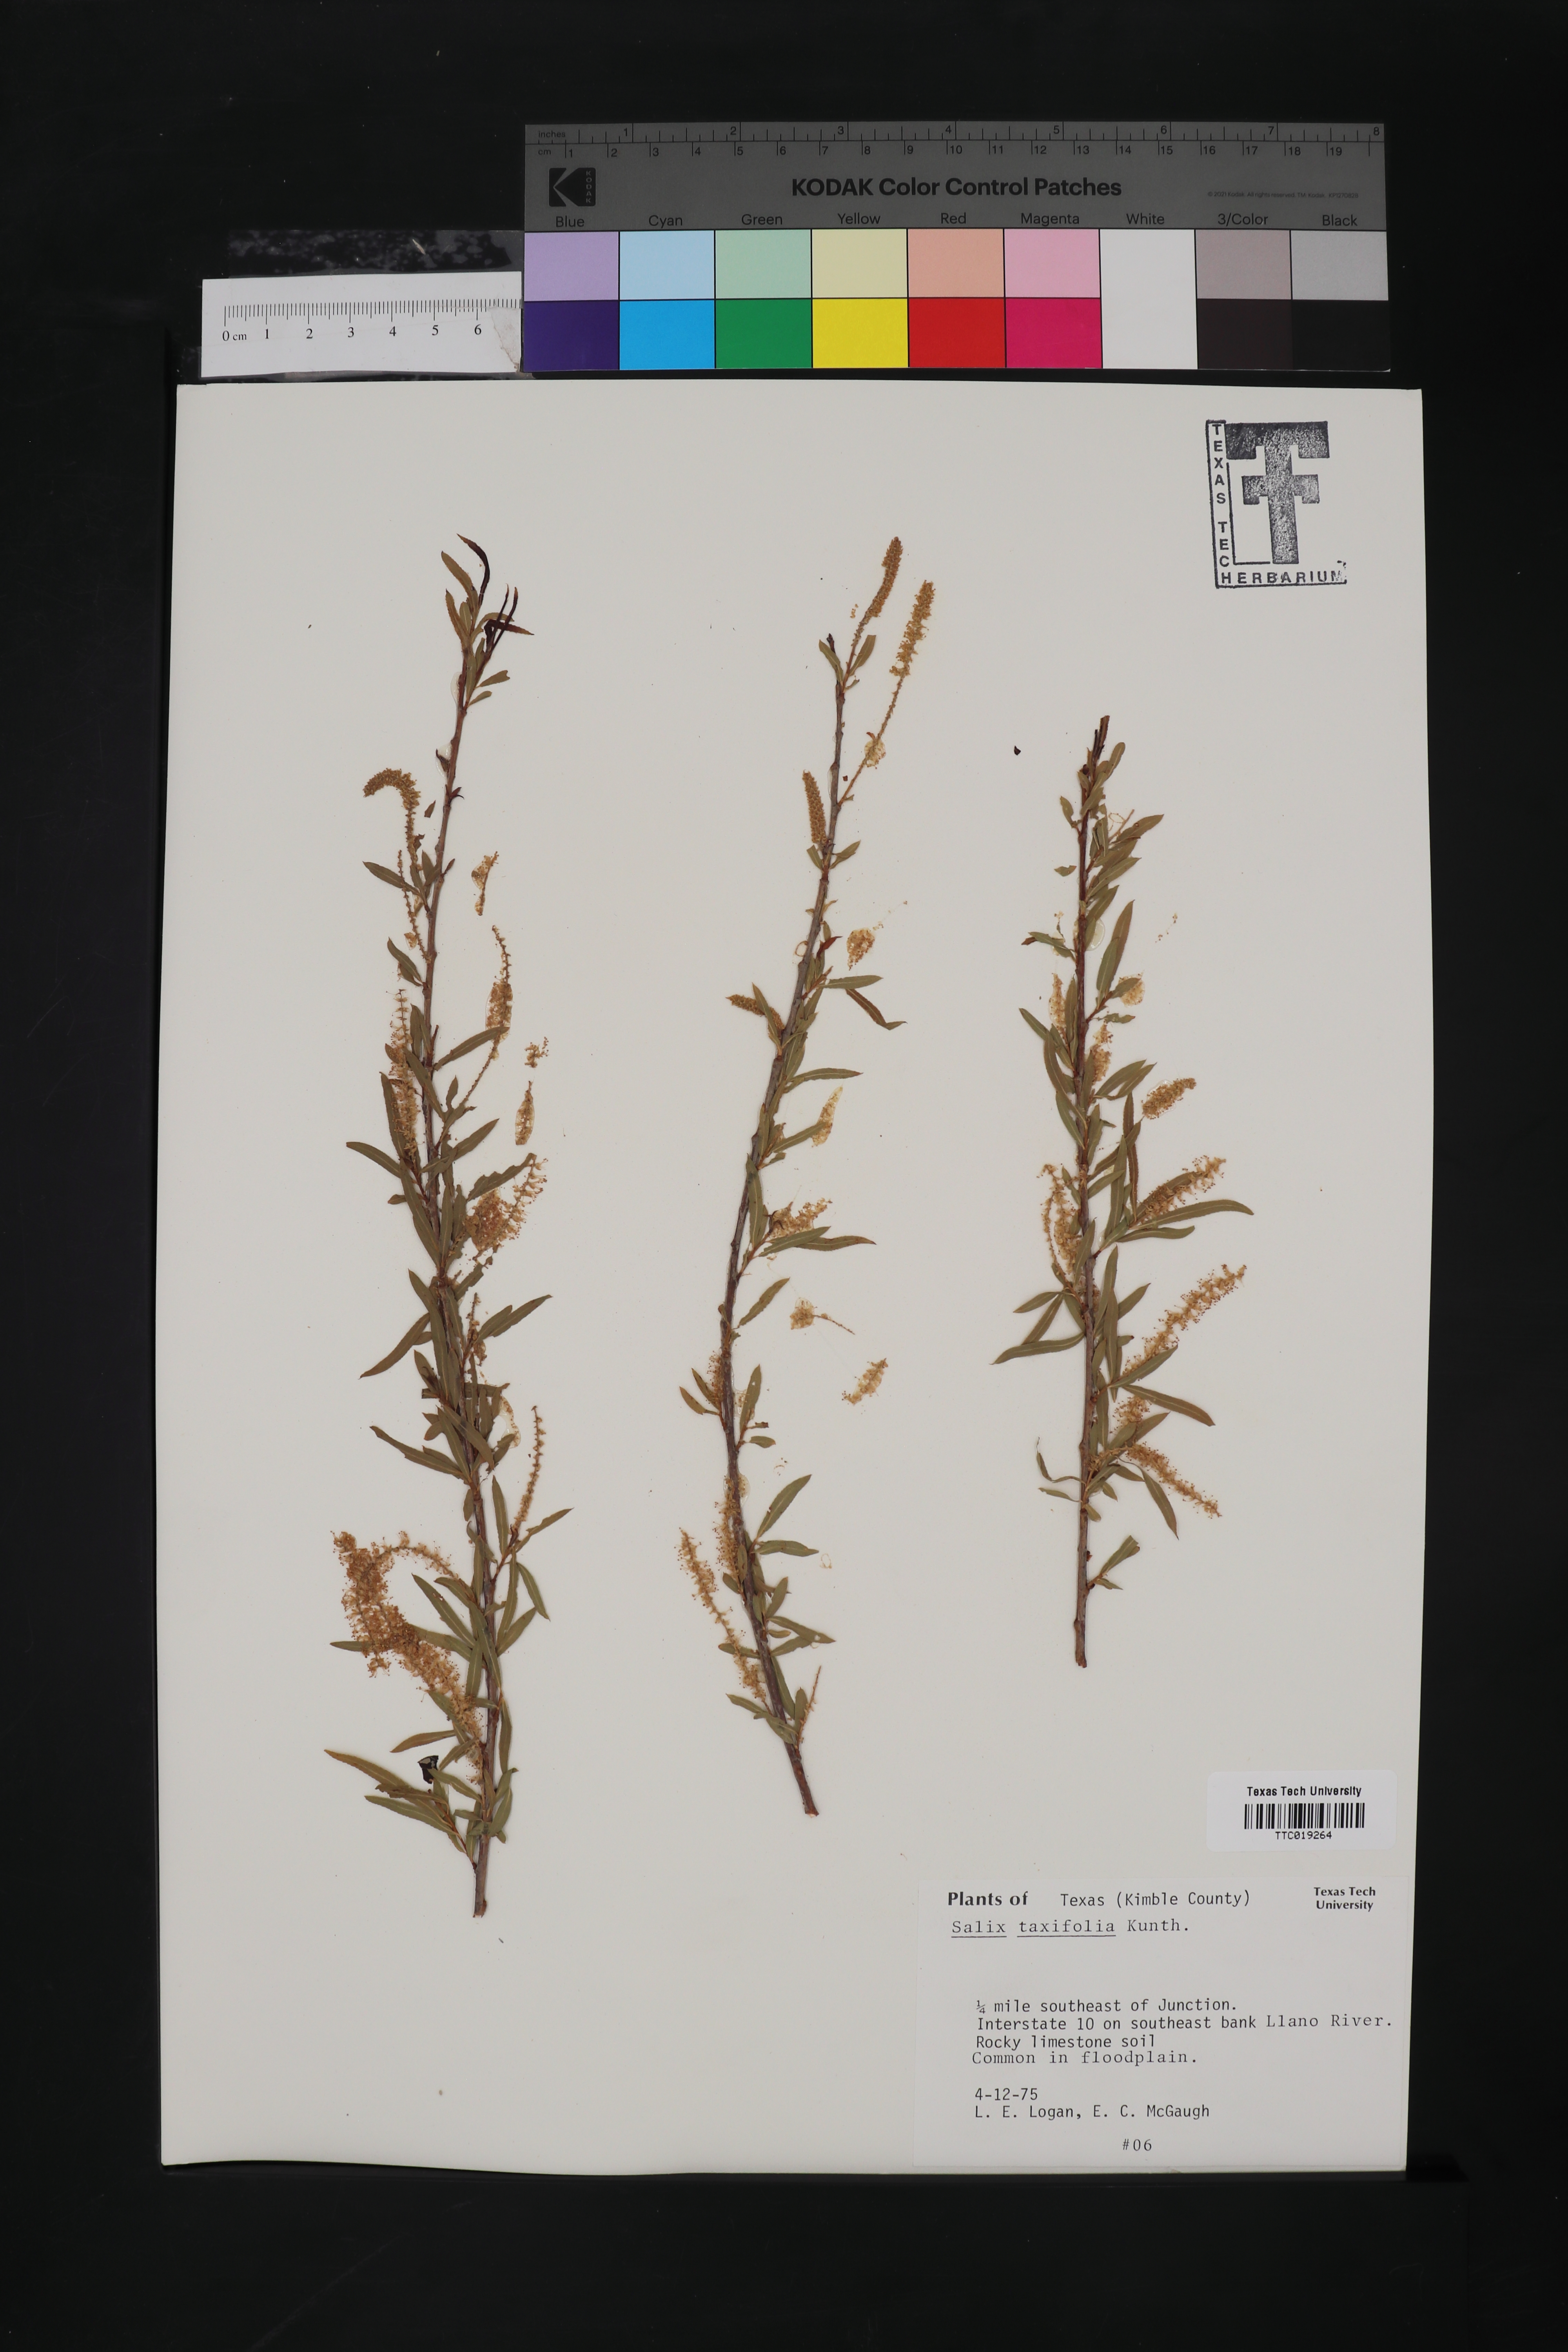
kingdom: Plantae
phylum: Tracheophyta
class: Magnoliopsida
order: Malpighiales
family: Salicaceae
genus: Salix
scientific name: Salix taxifolia
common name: Yew-leaf willow
